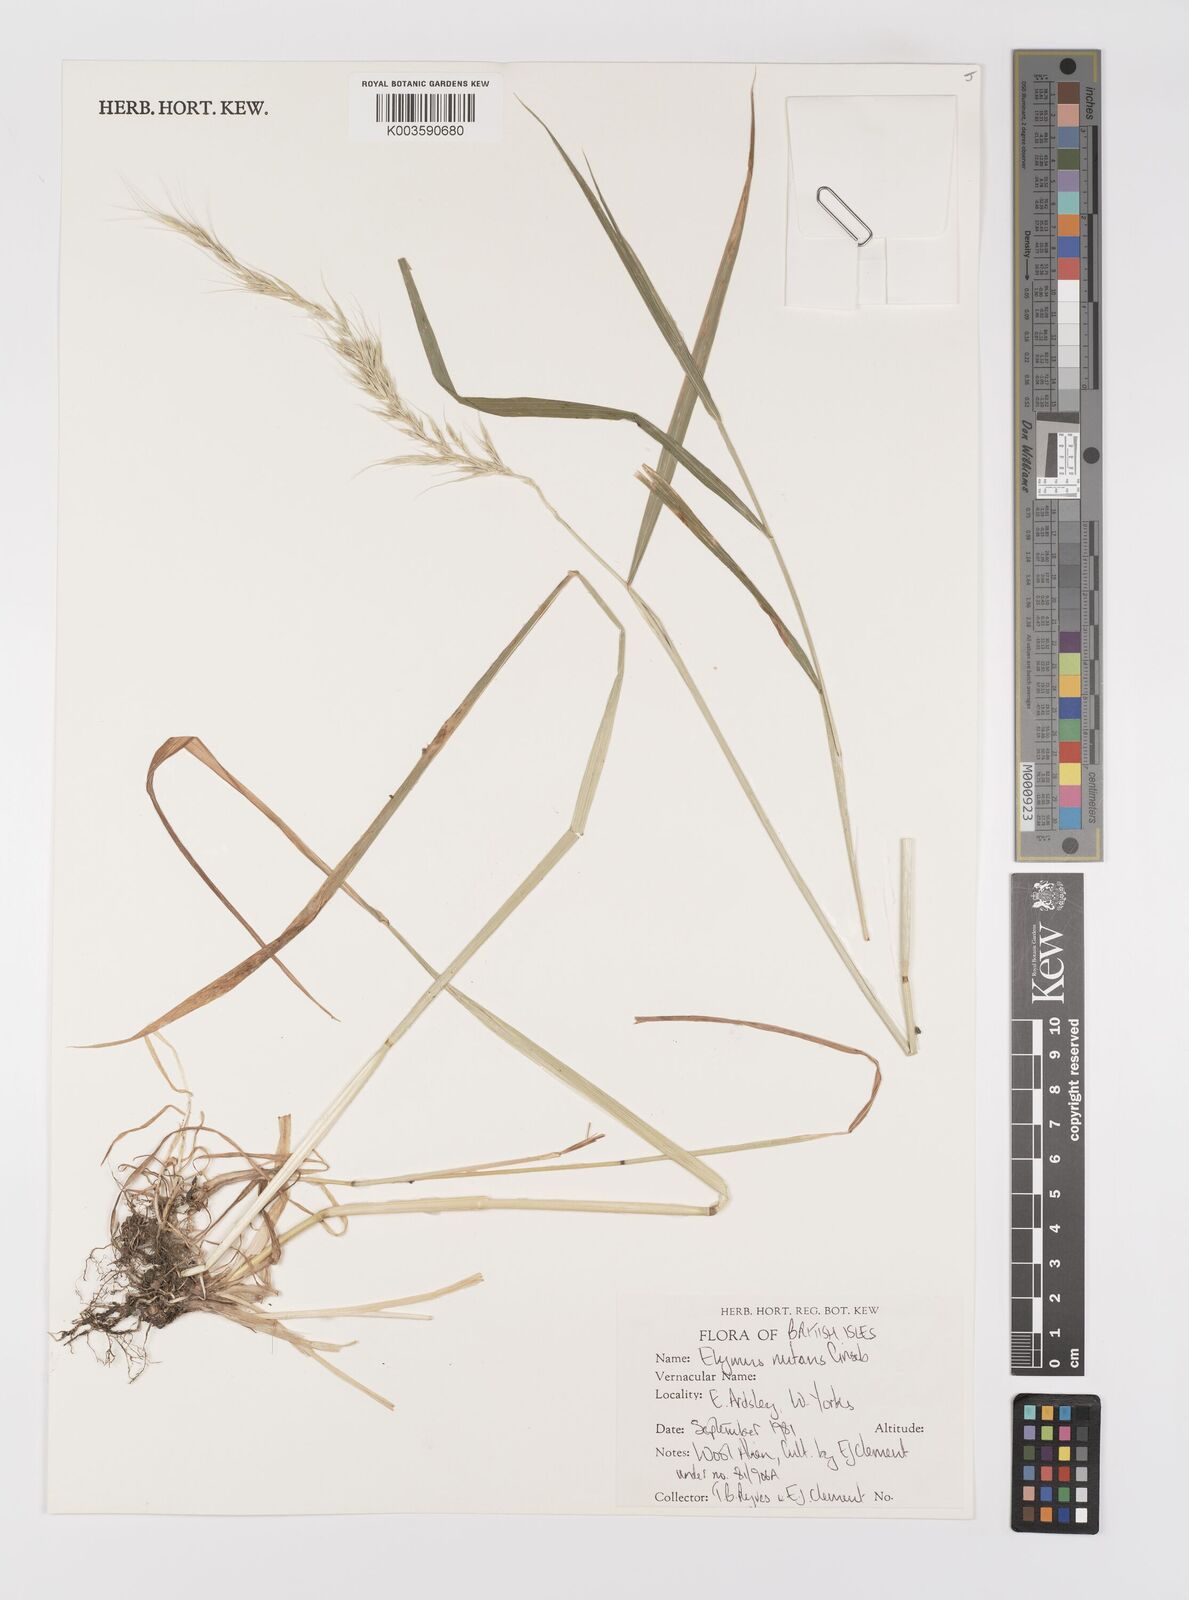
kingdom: Plantae
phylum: Tracheophyta
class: Liliopsida
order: Poales
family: Poaceae
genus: Elymus
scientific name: Elymus nutans
